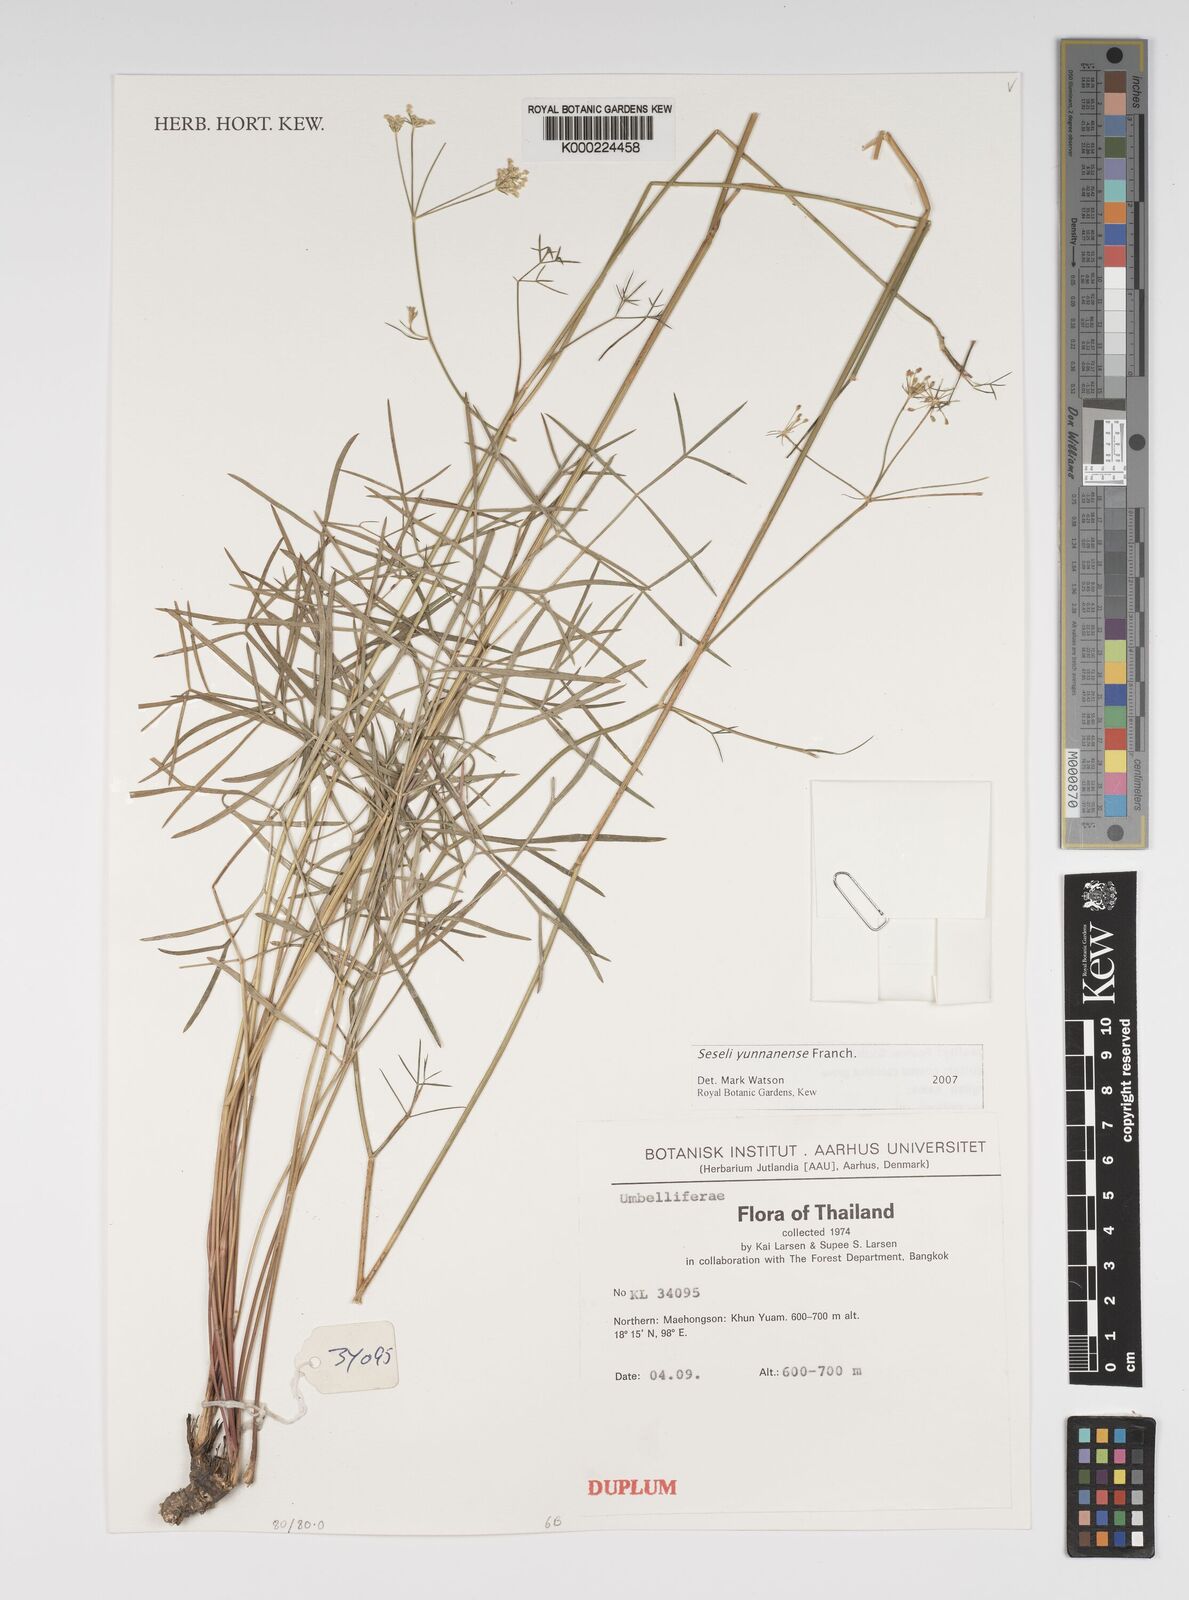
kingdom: Plantae
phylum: Tracheophyta
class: Magnoliopsida
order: Apiales
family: Apiaceae
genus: Seseli
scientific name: Seseli yunnanense
